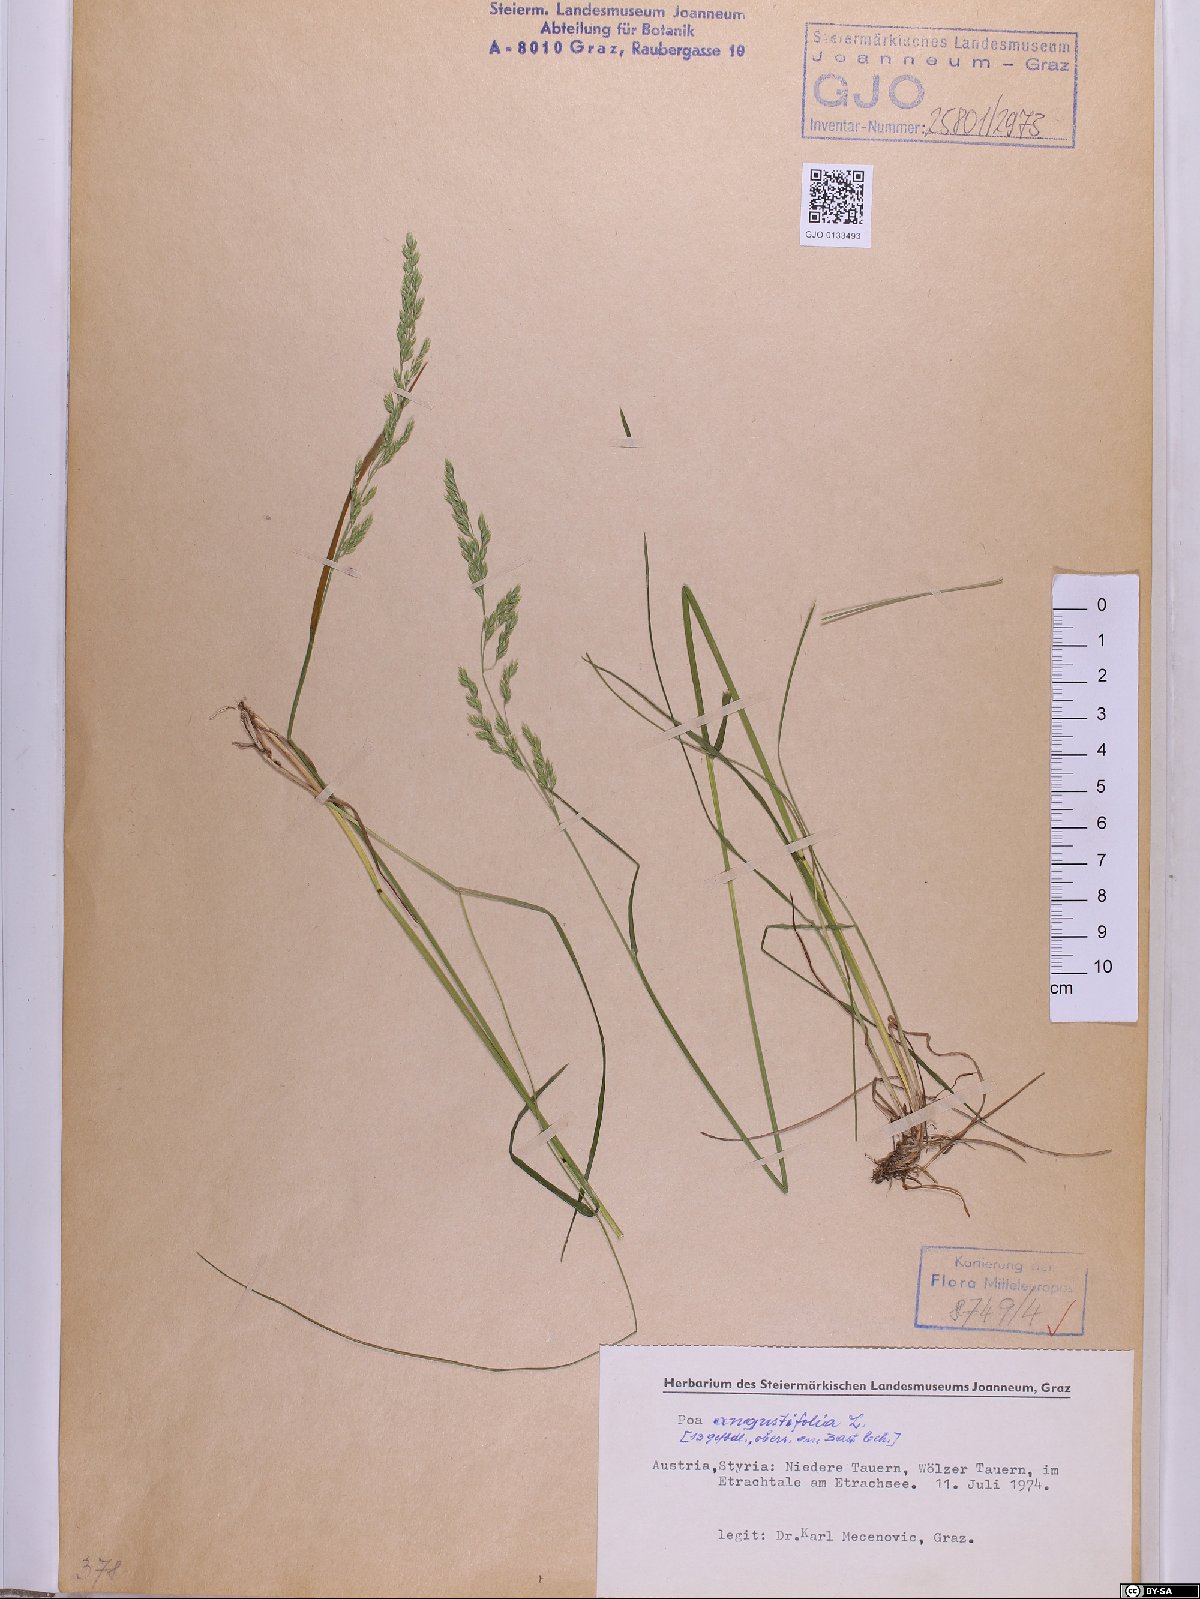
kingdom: Plantae
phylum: Tracheophyta
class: Liliopsida
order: Poales
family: Poaceae
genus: Poa
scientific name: Poa angustifolia
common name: Narrow-leaved meadow-grass
